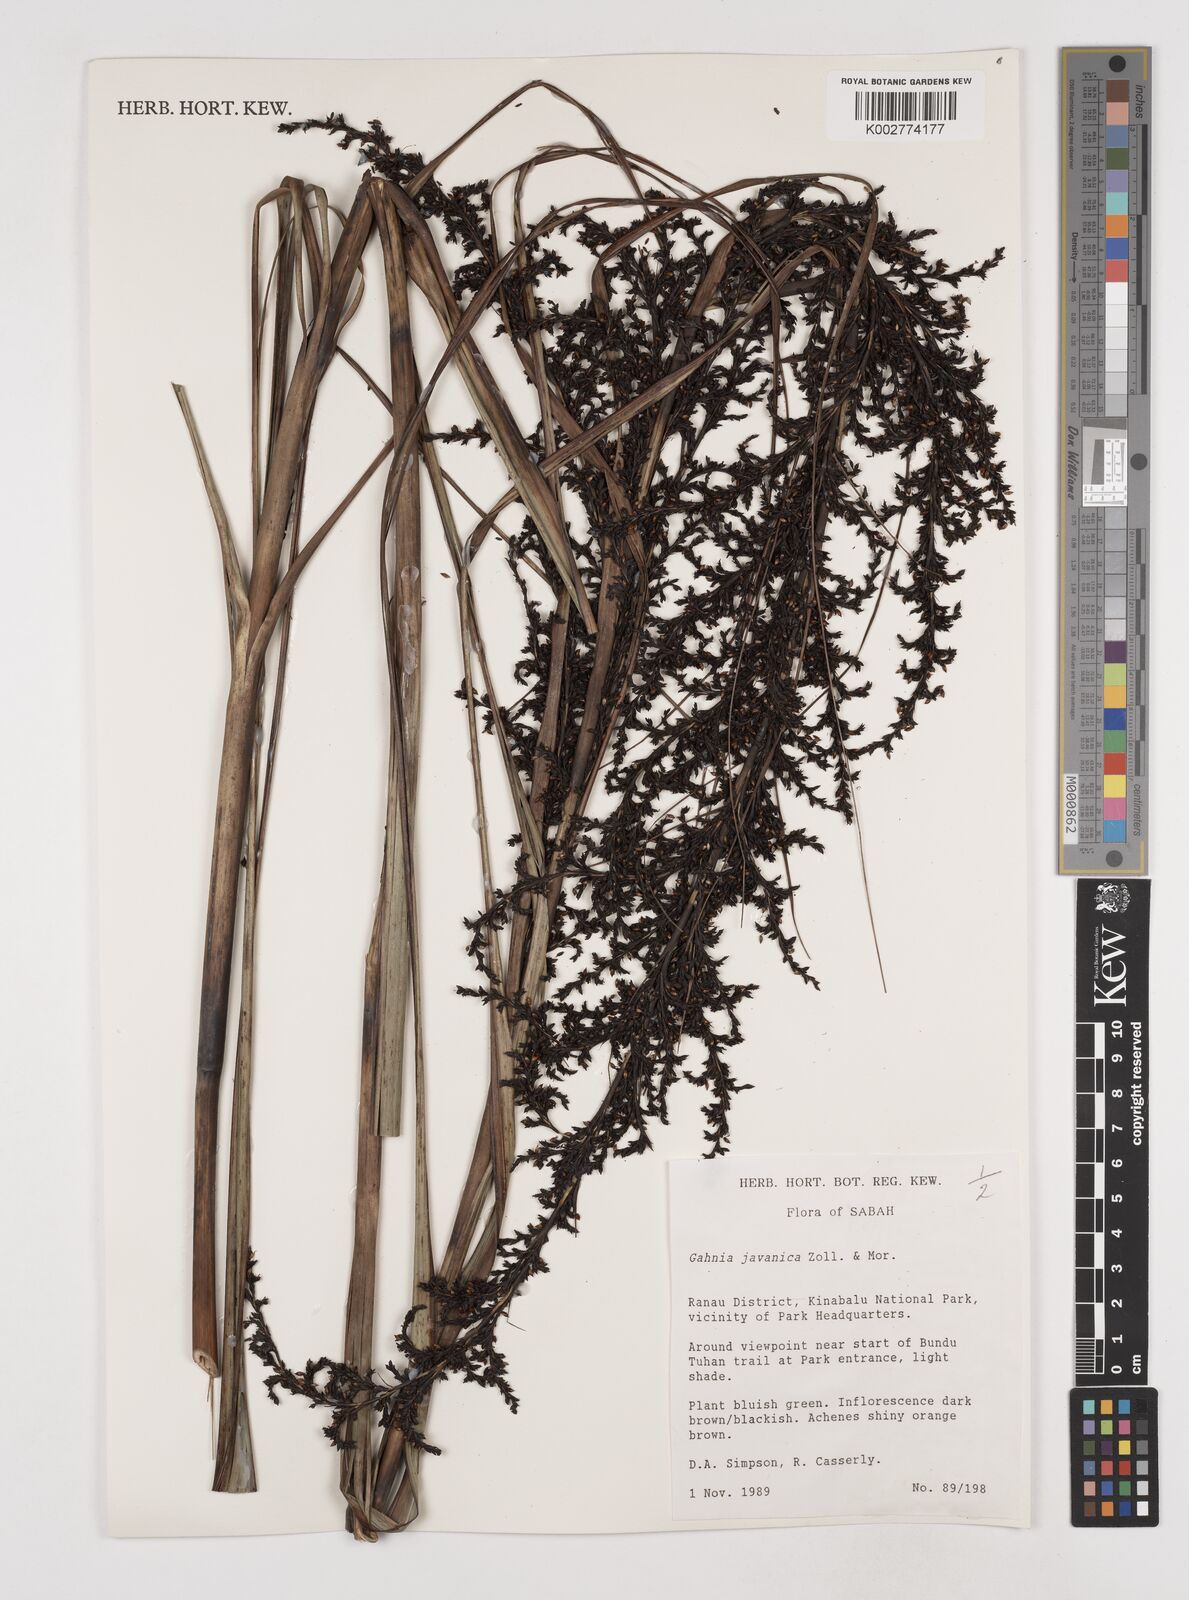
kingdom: Plantae
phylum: Tracheophyta
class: Liliopsida
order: Poales
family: Cyperaceae
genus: Gahnia
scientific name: Gahnia javanica
